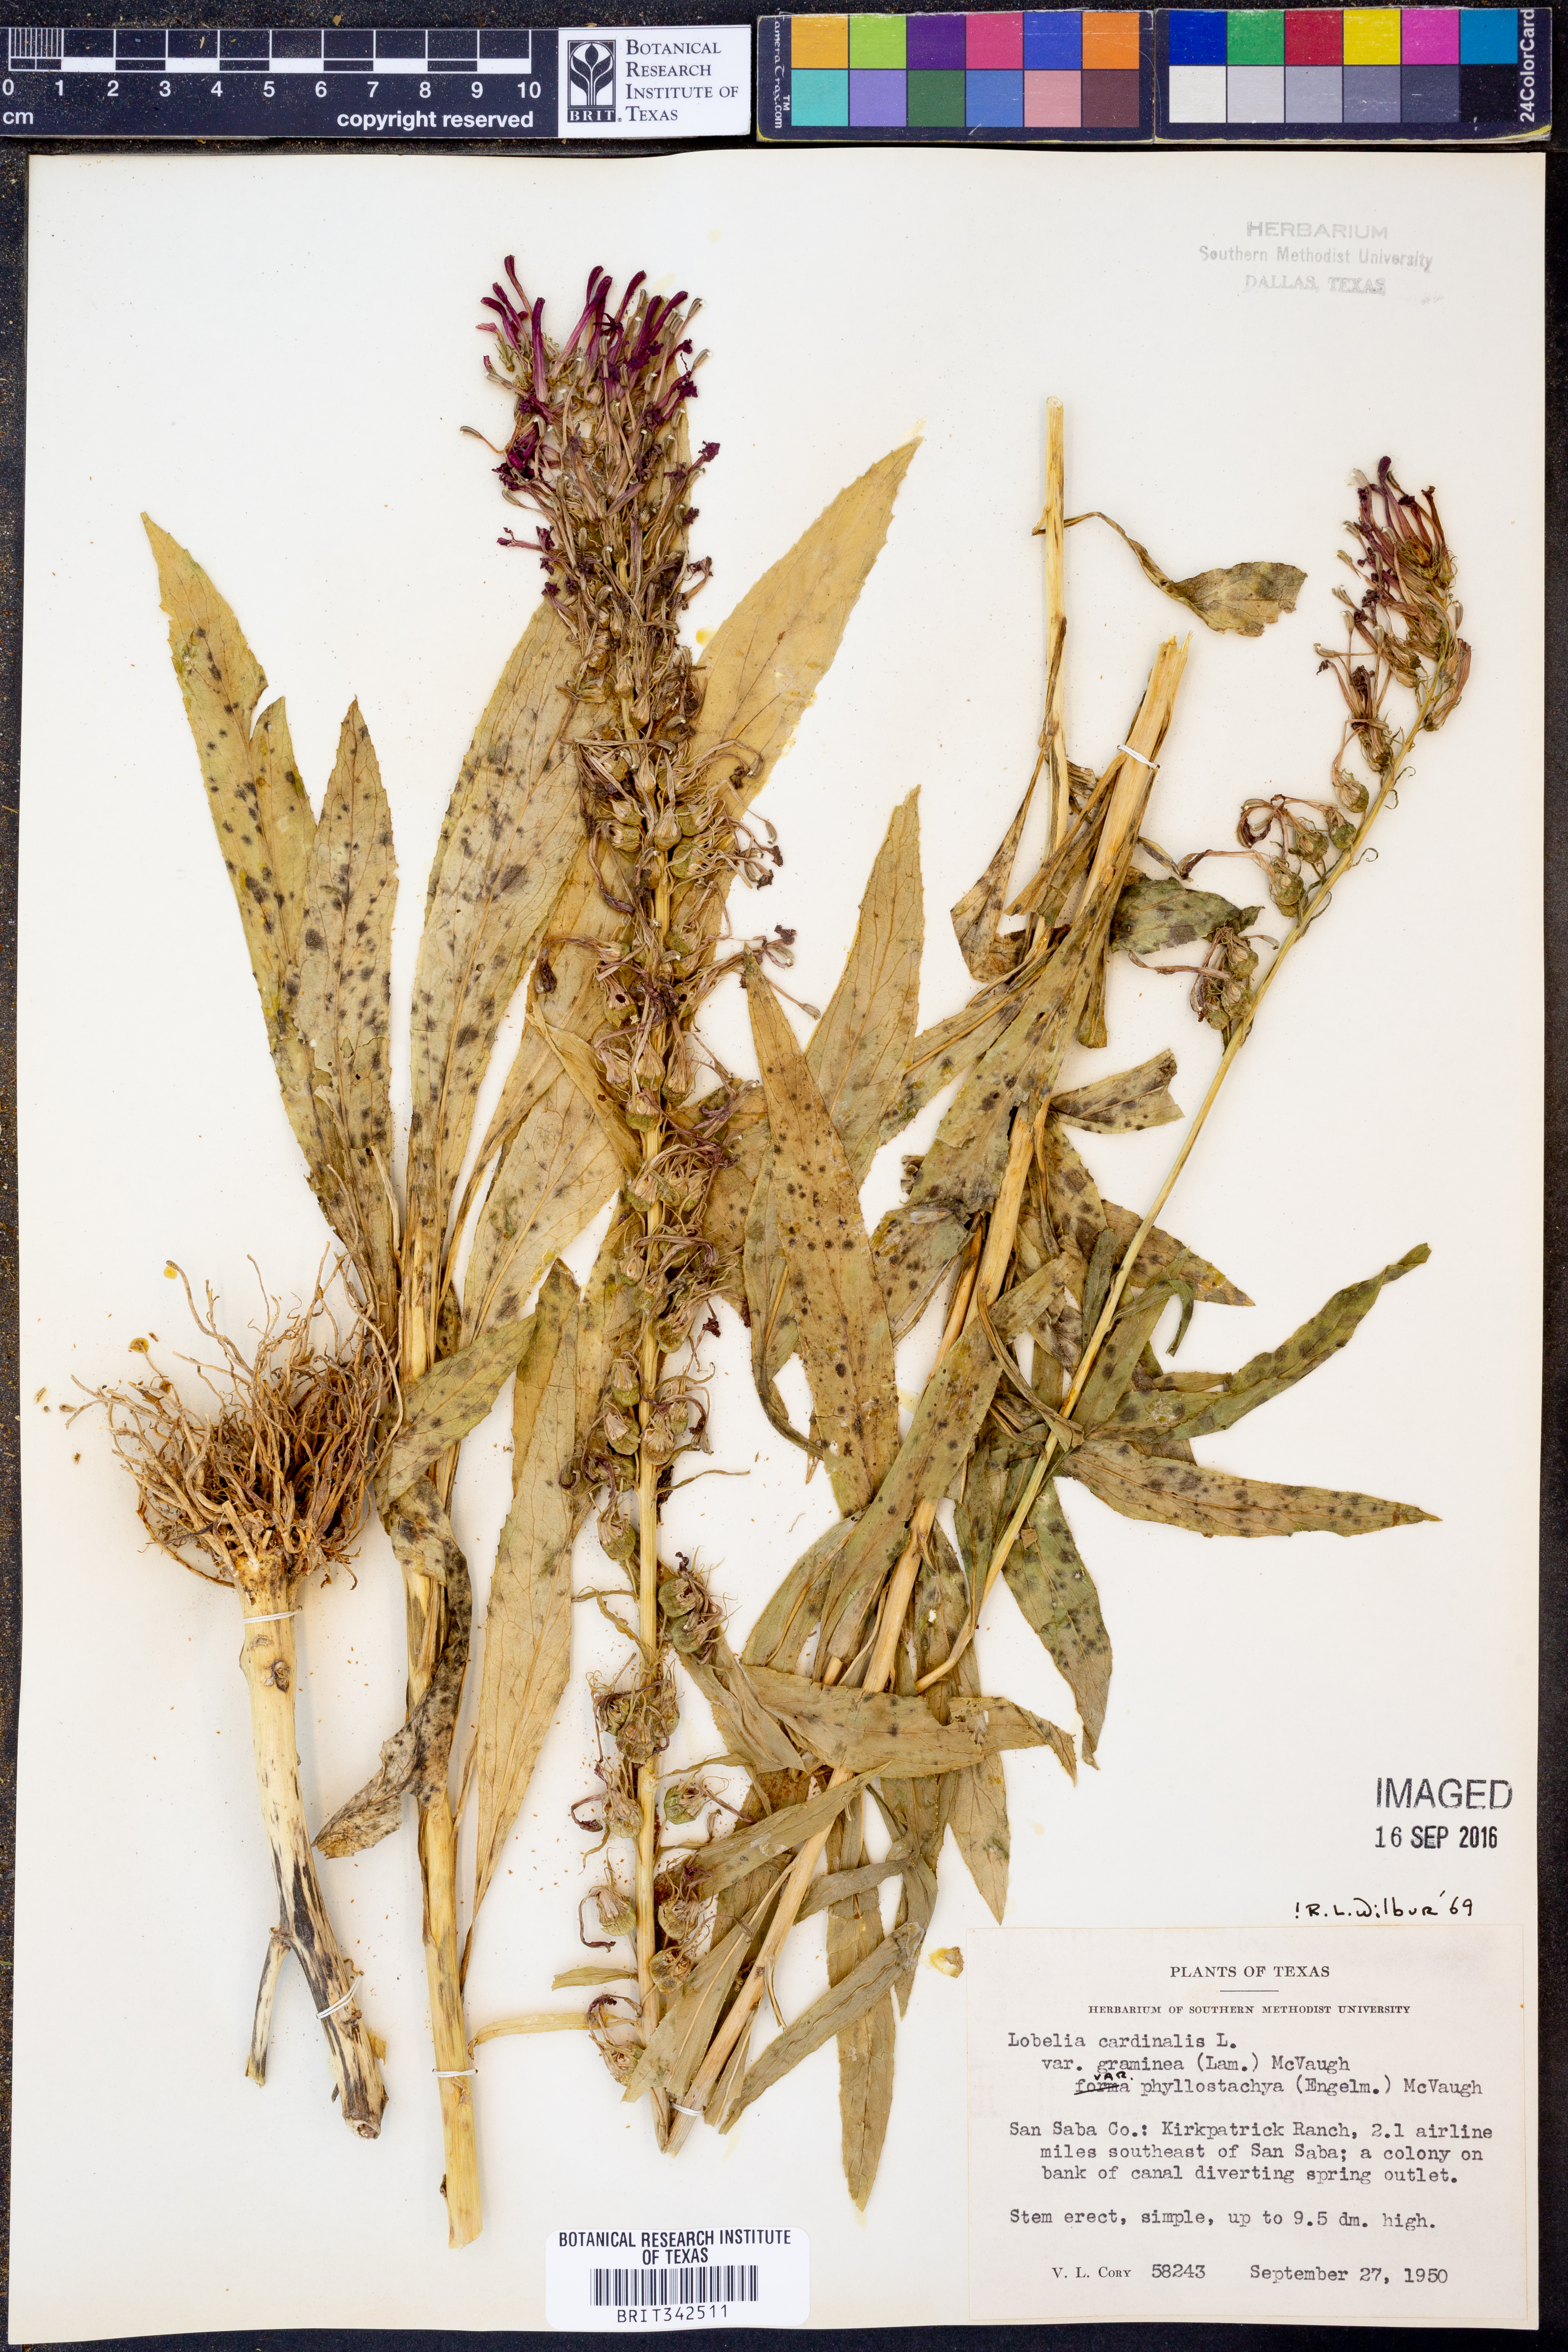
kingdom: Plantae
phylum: Tracheophyta
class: Magnoliopsida
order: Asterales
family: Campanulaceae
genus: Lobelia
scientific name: Lobelia cardinalis
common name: Cardinal flower
